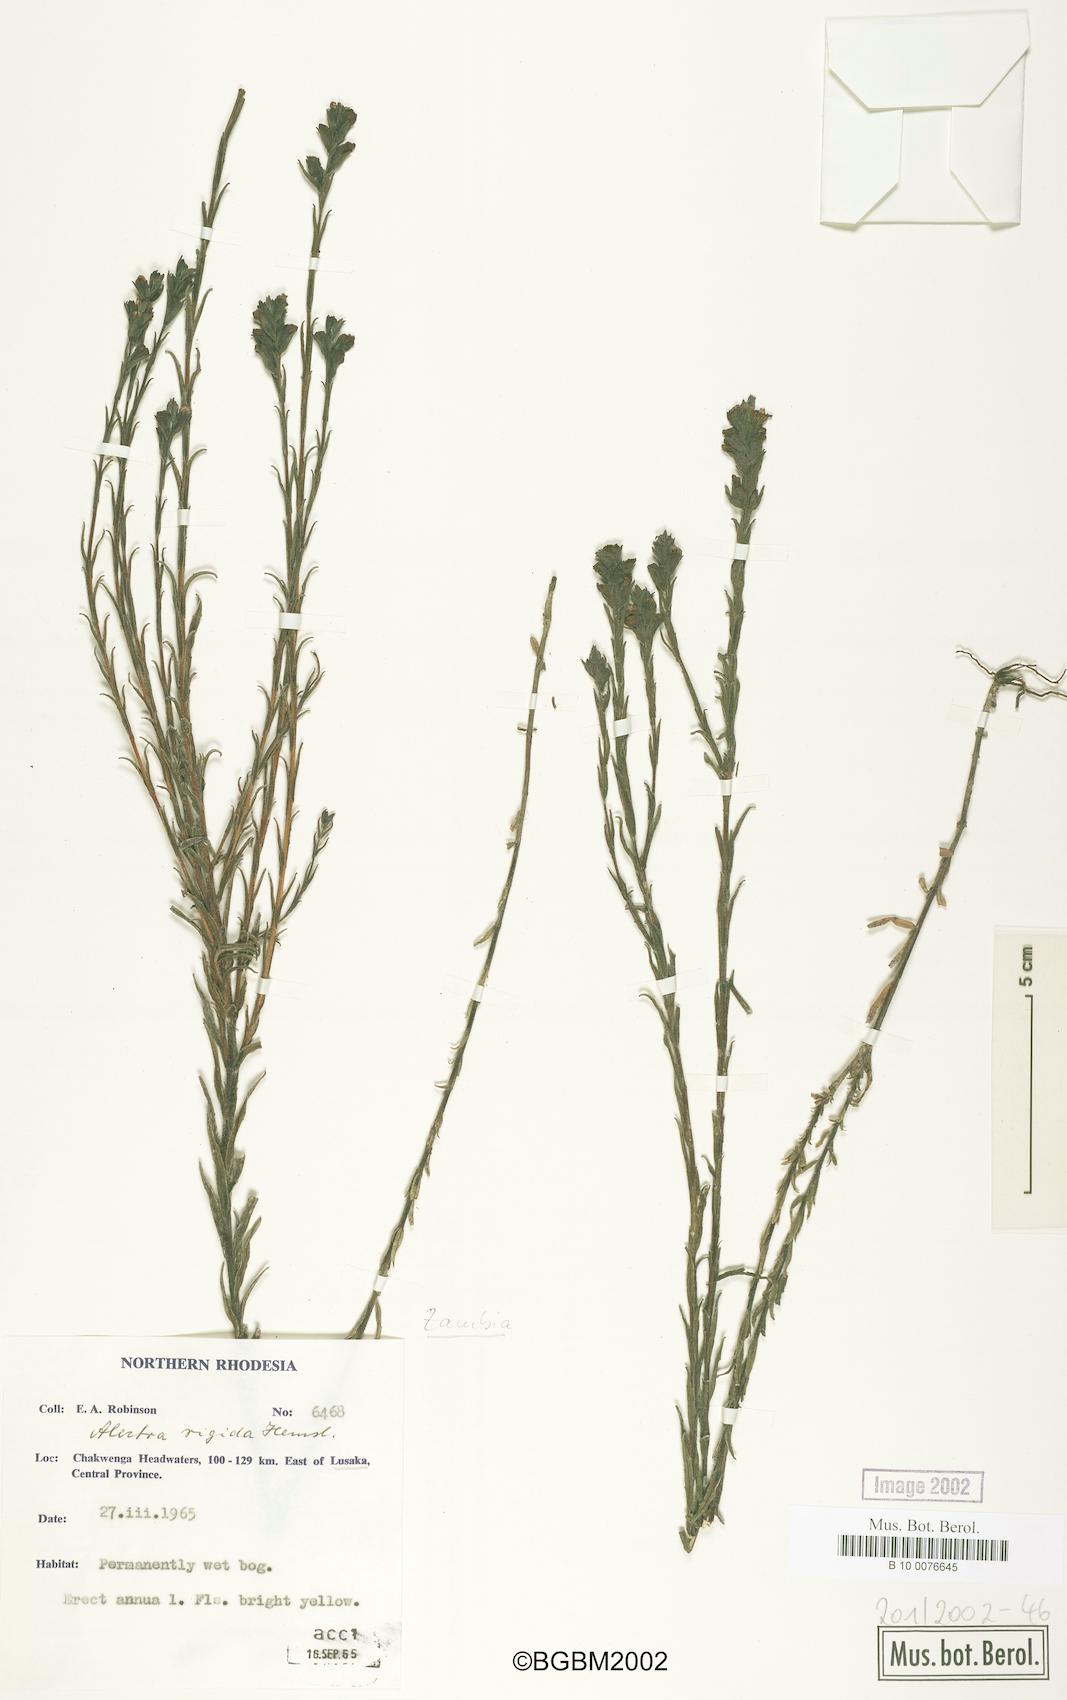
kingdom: Plantae
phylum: Tracheophyta
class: Magnoliopsida
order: Lamiales
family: Orobanchaceae
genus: Alectra
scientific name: Alectra rigida
